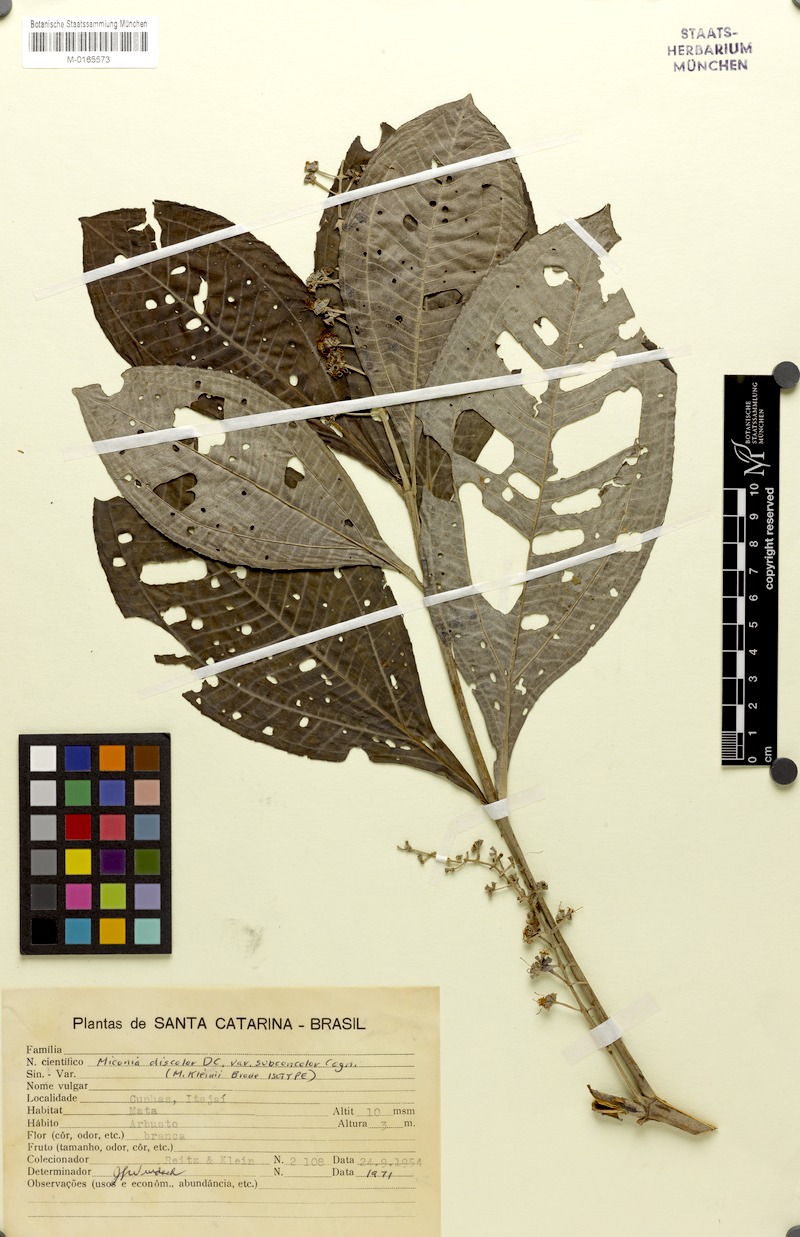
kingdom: Plantae
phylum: Tracheophyta
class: Magnoliopsida
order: Myrtales
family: Melastomataceae
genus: Miconia
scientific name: Miconia discolor
